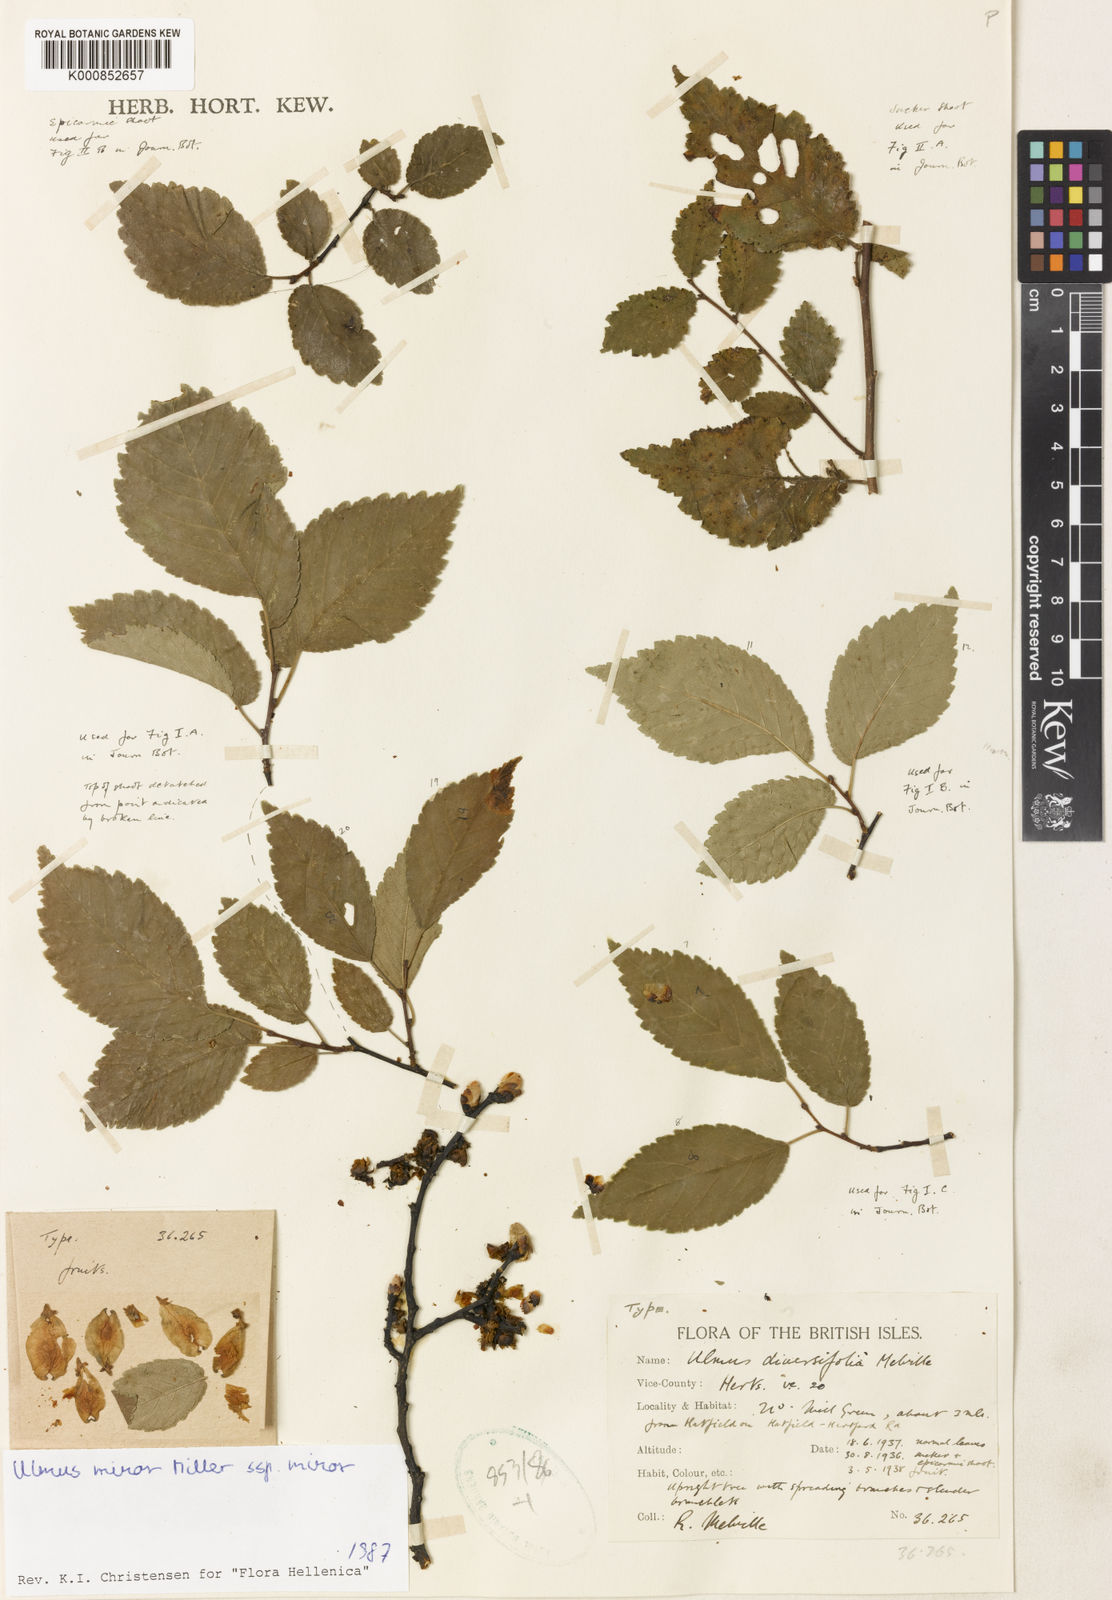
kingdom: Plantae
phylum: Tracheophyta
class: Magnoliopsida
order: Rosales
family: Ulmaceae
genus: Ulmus
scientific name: Ulmus minor
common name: Small-leaved elm
